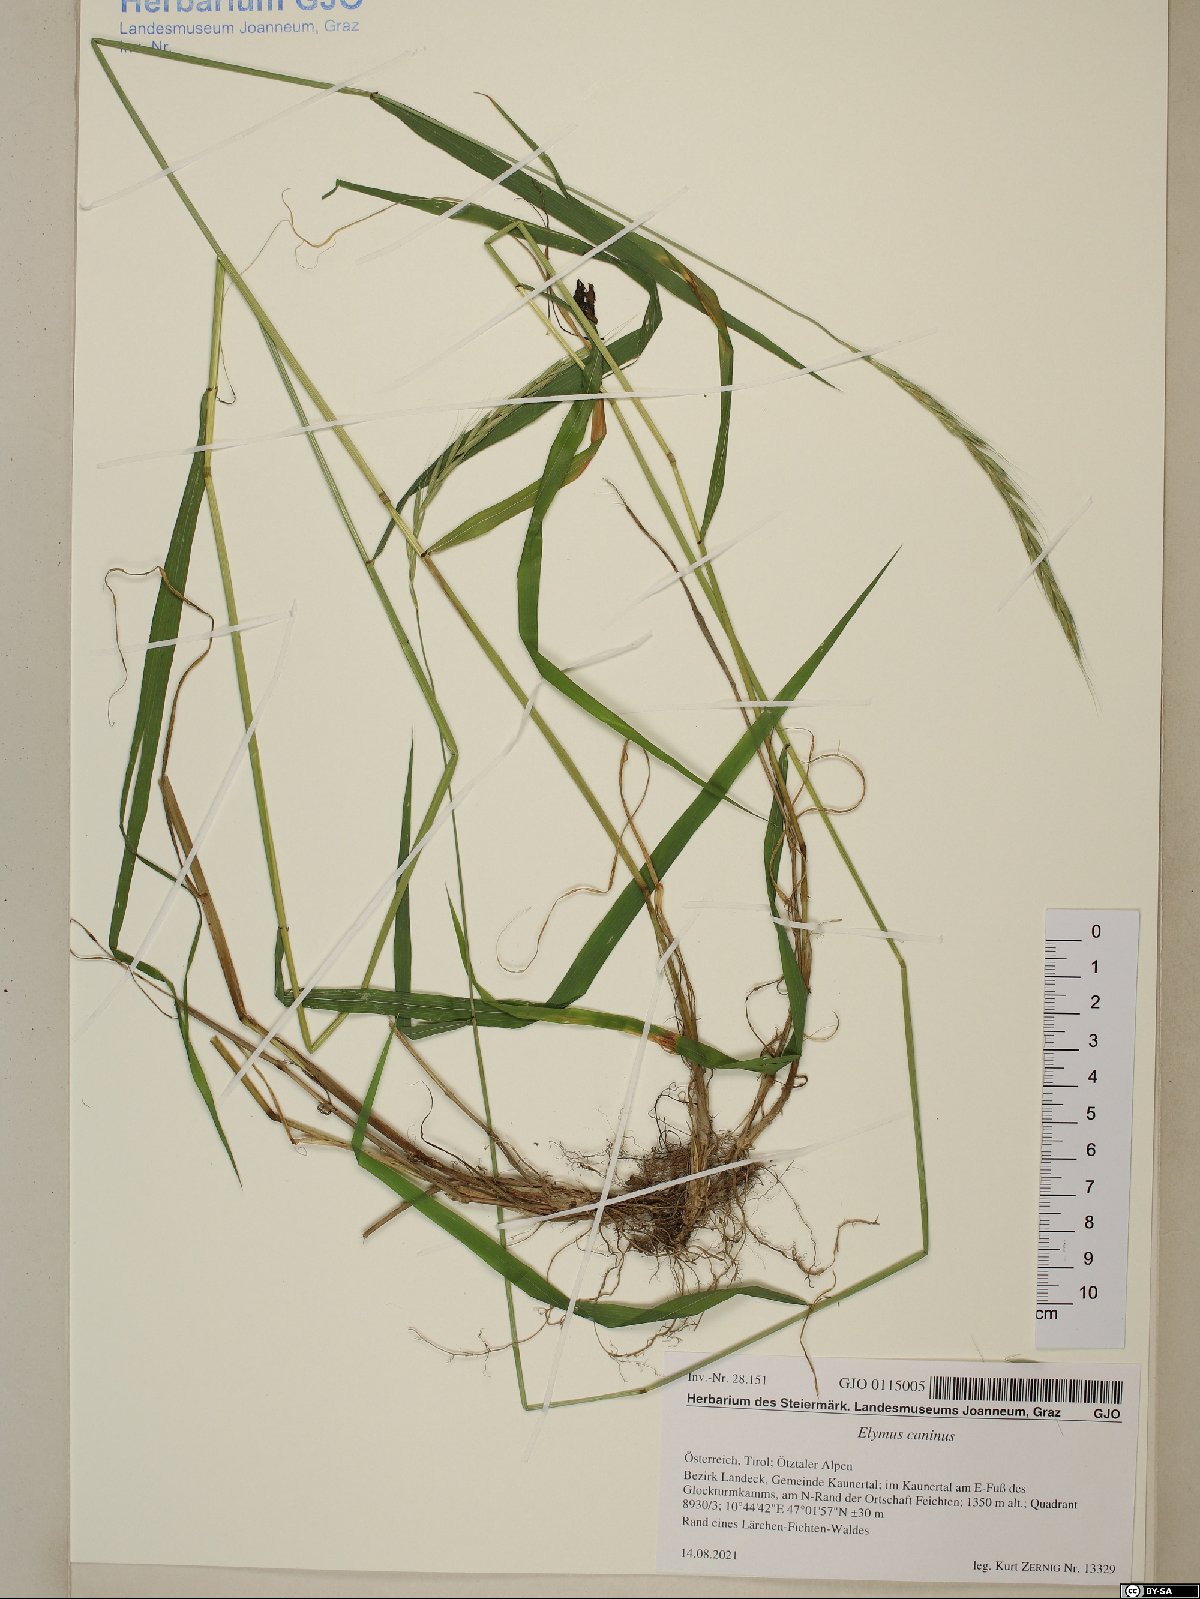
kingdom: Plantae
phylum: Tracheophyta
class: Liliopsida
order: Poales
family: Poaceae
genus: Elymus
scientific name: Elymus caninus
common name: Bearded couch
